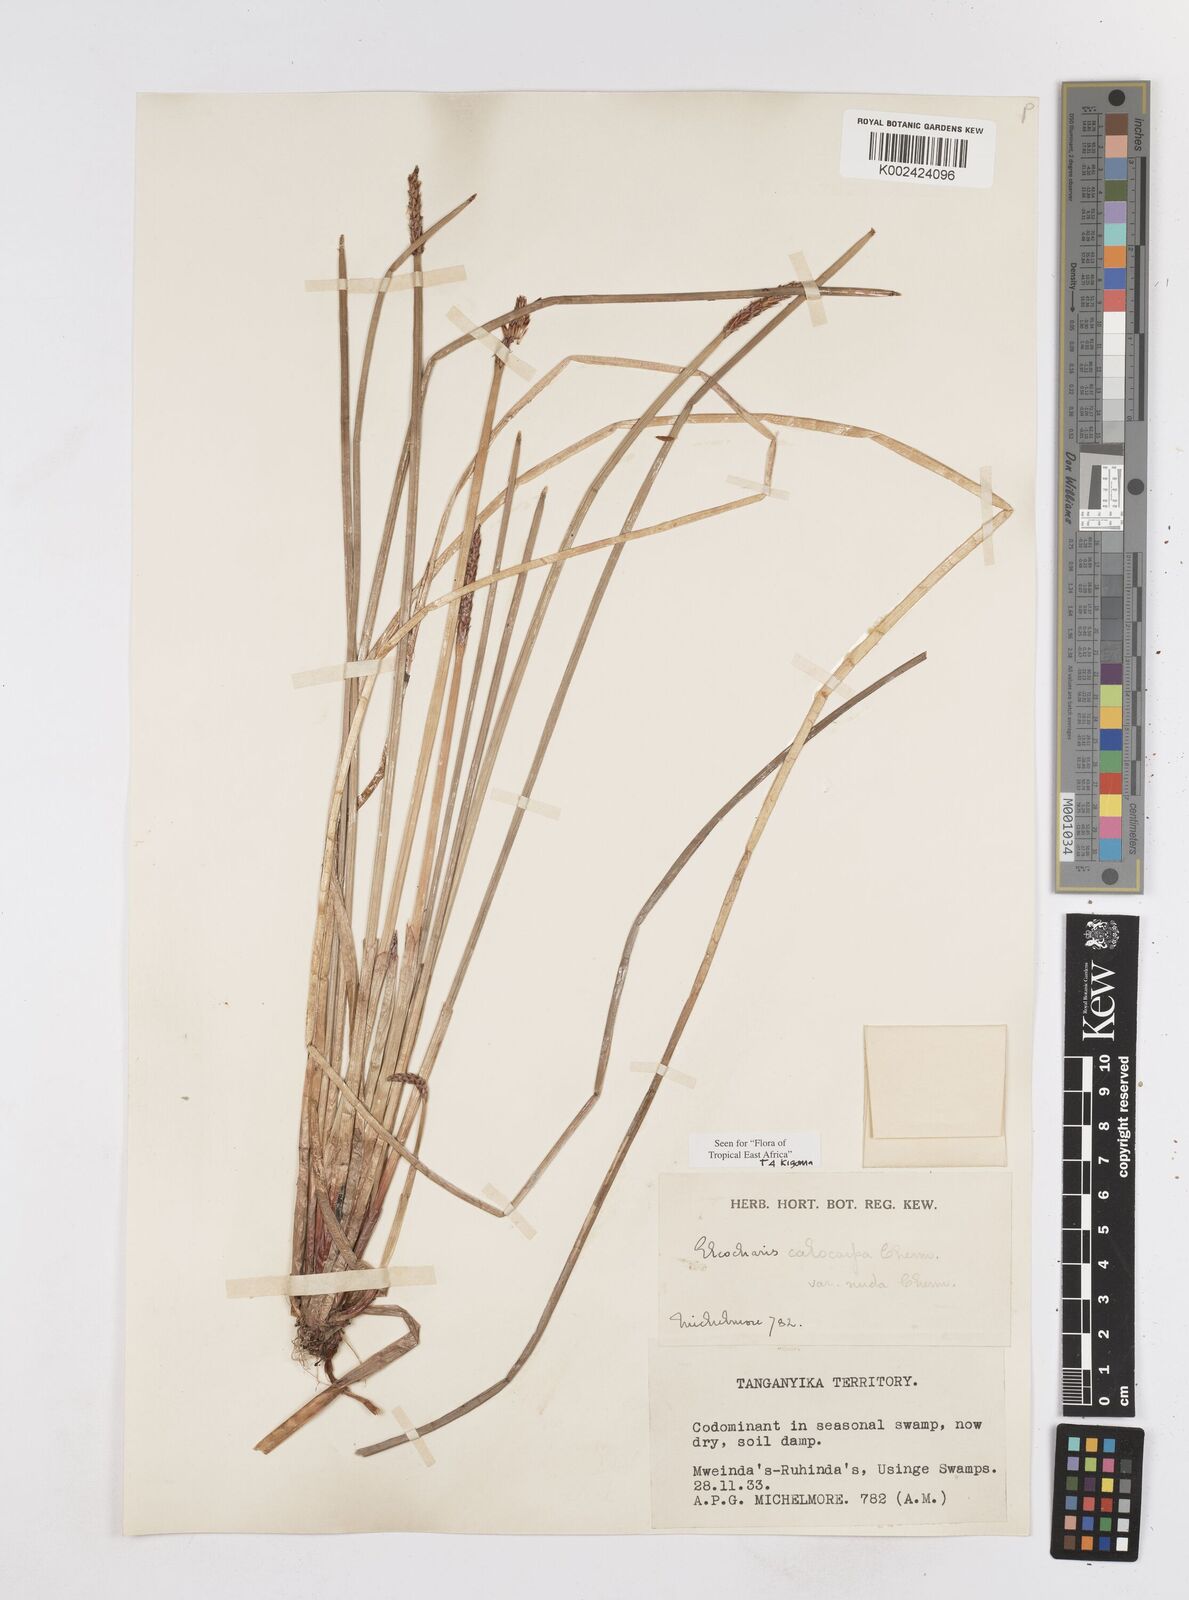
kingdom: Plantae
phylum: Tracheophyta
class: Liliopsida
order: Poales
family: Cyperaceae
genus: Eleocharis
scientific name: Eleocharis variegata
